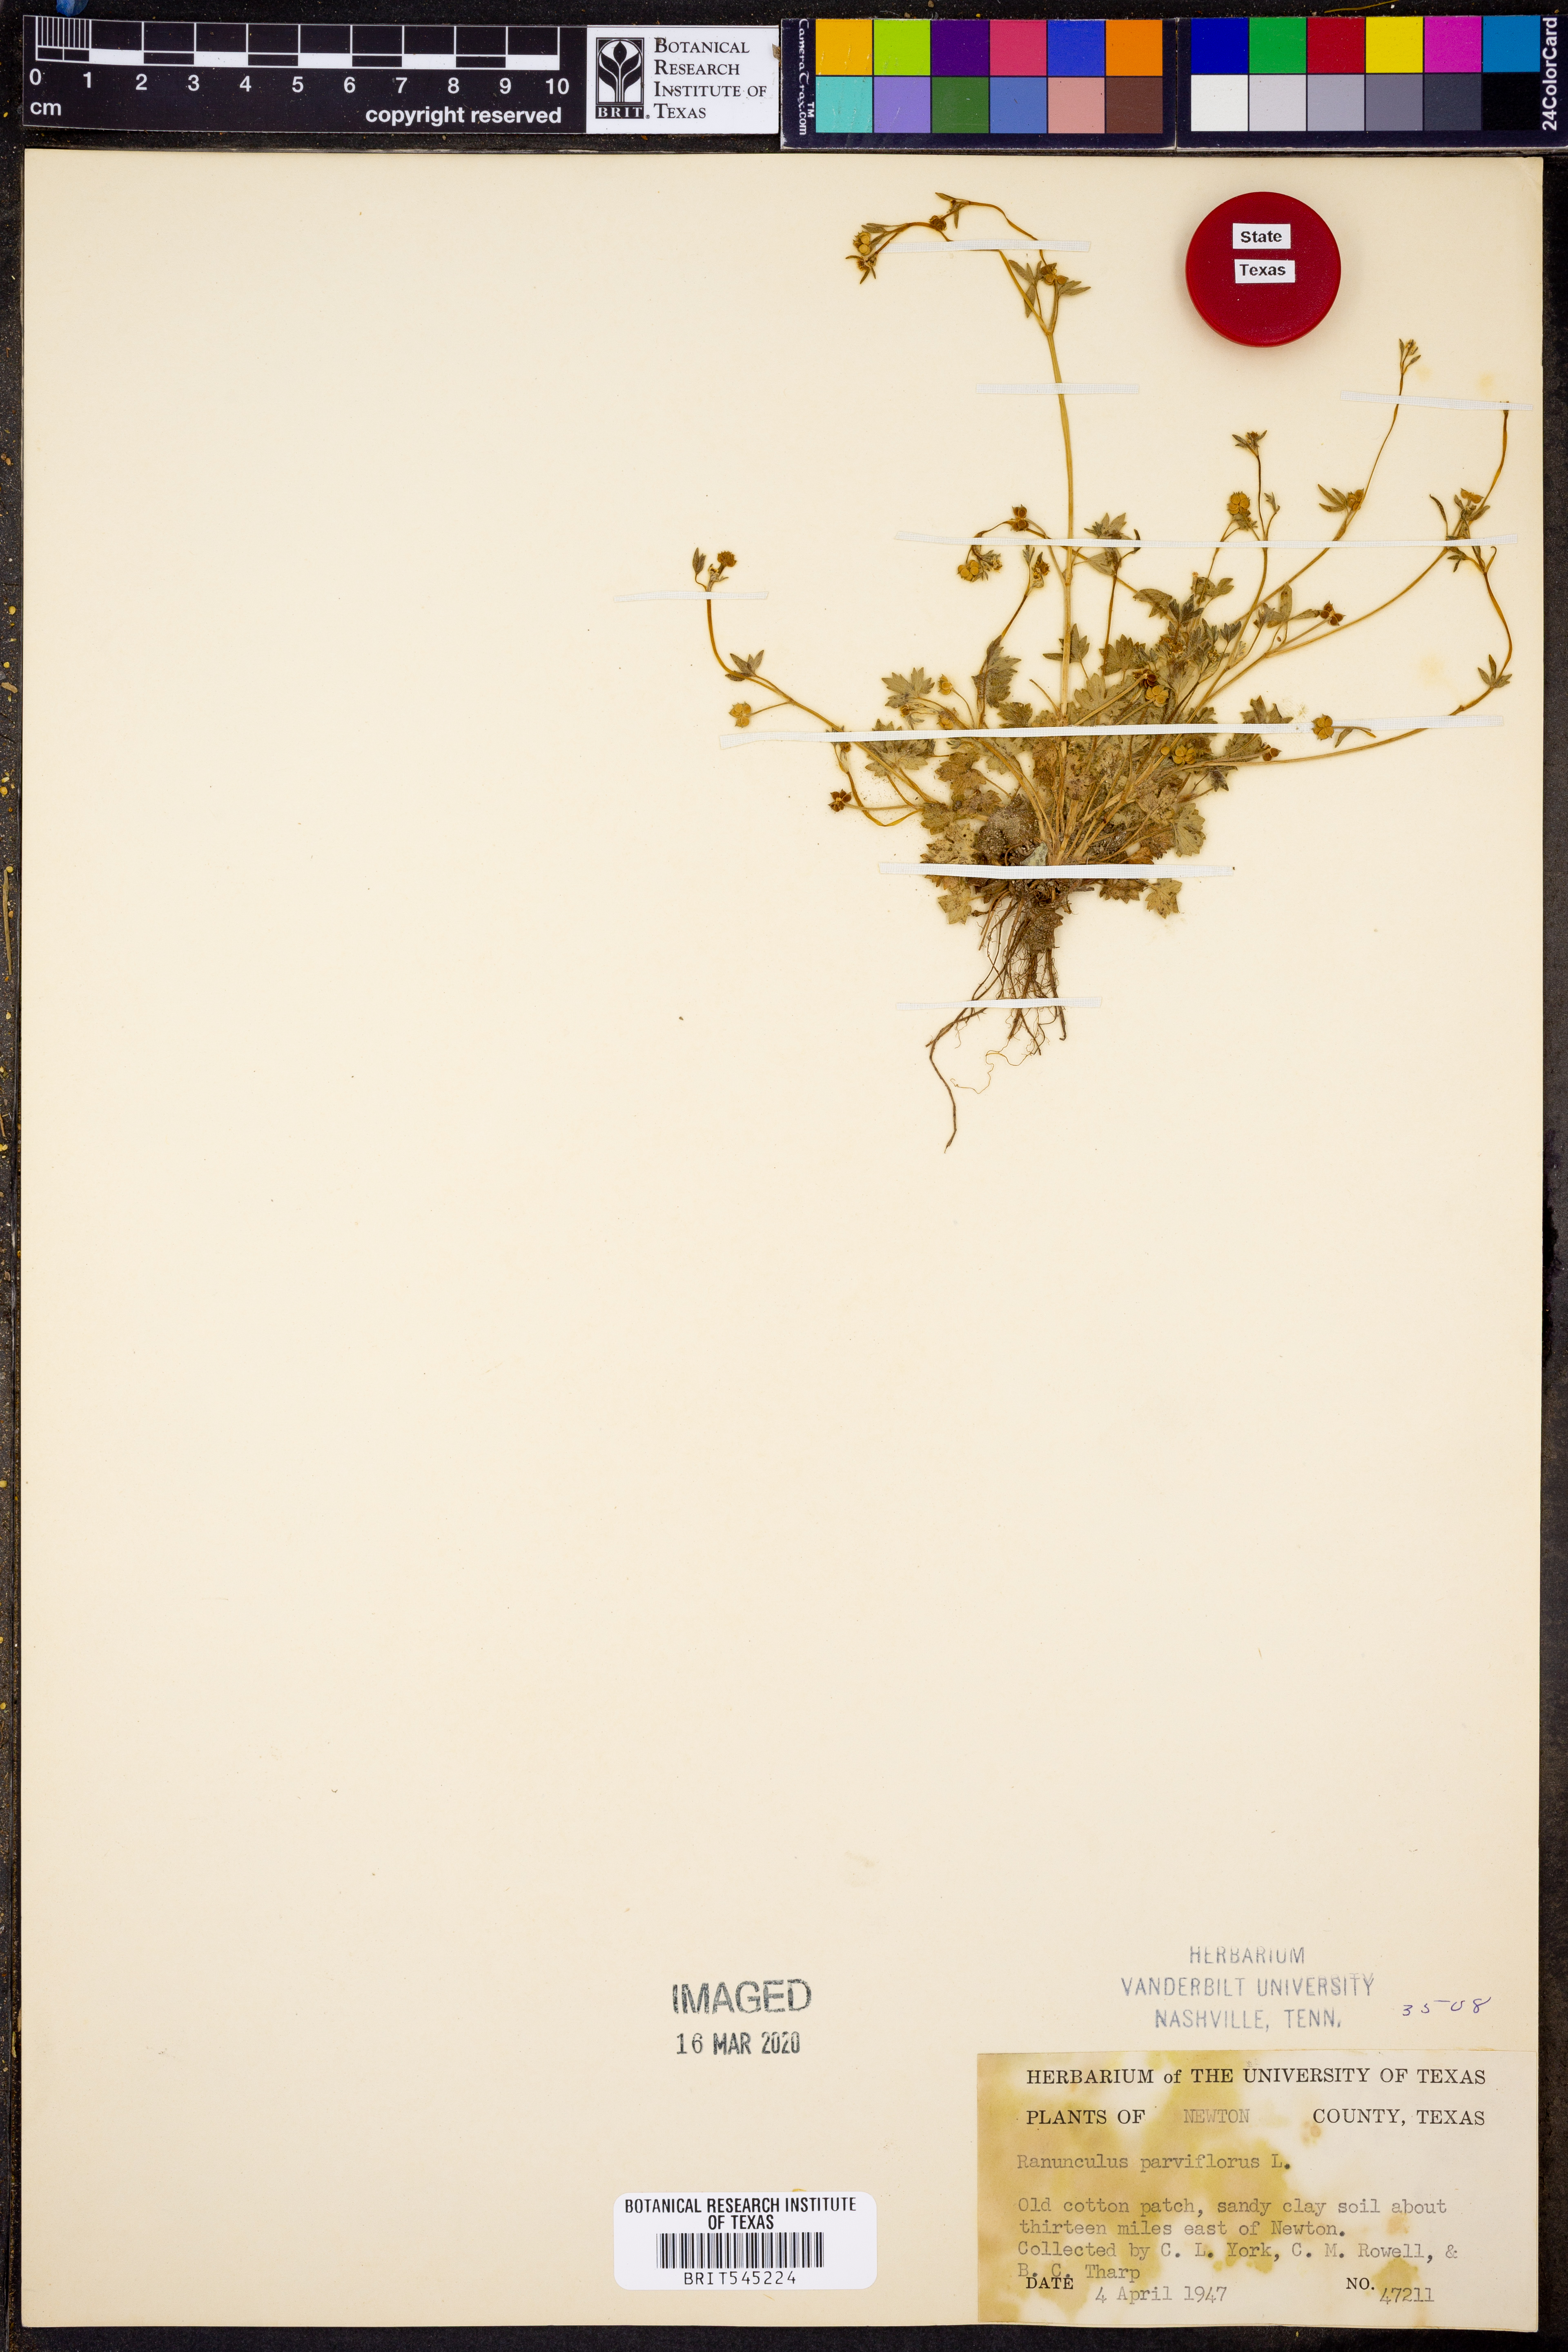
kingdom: Plantae
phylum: Tracheophyta
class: Magnoliopsida
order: Ranunculales
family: Ranunculaceae
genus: Ranunculus
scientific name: Ranunculus parviflorus
